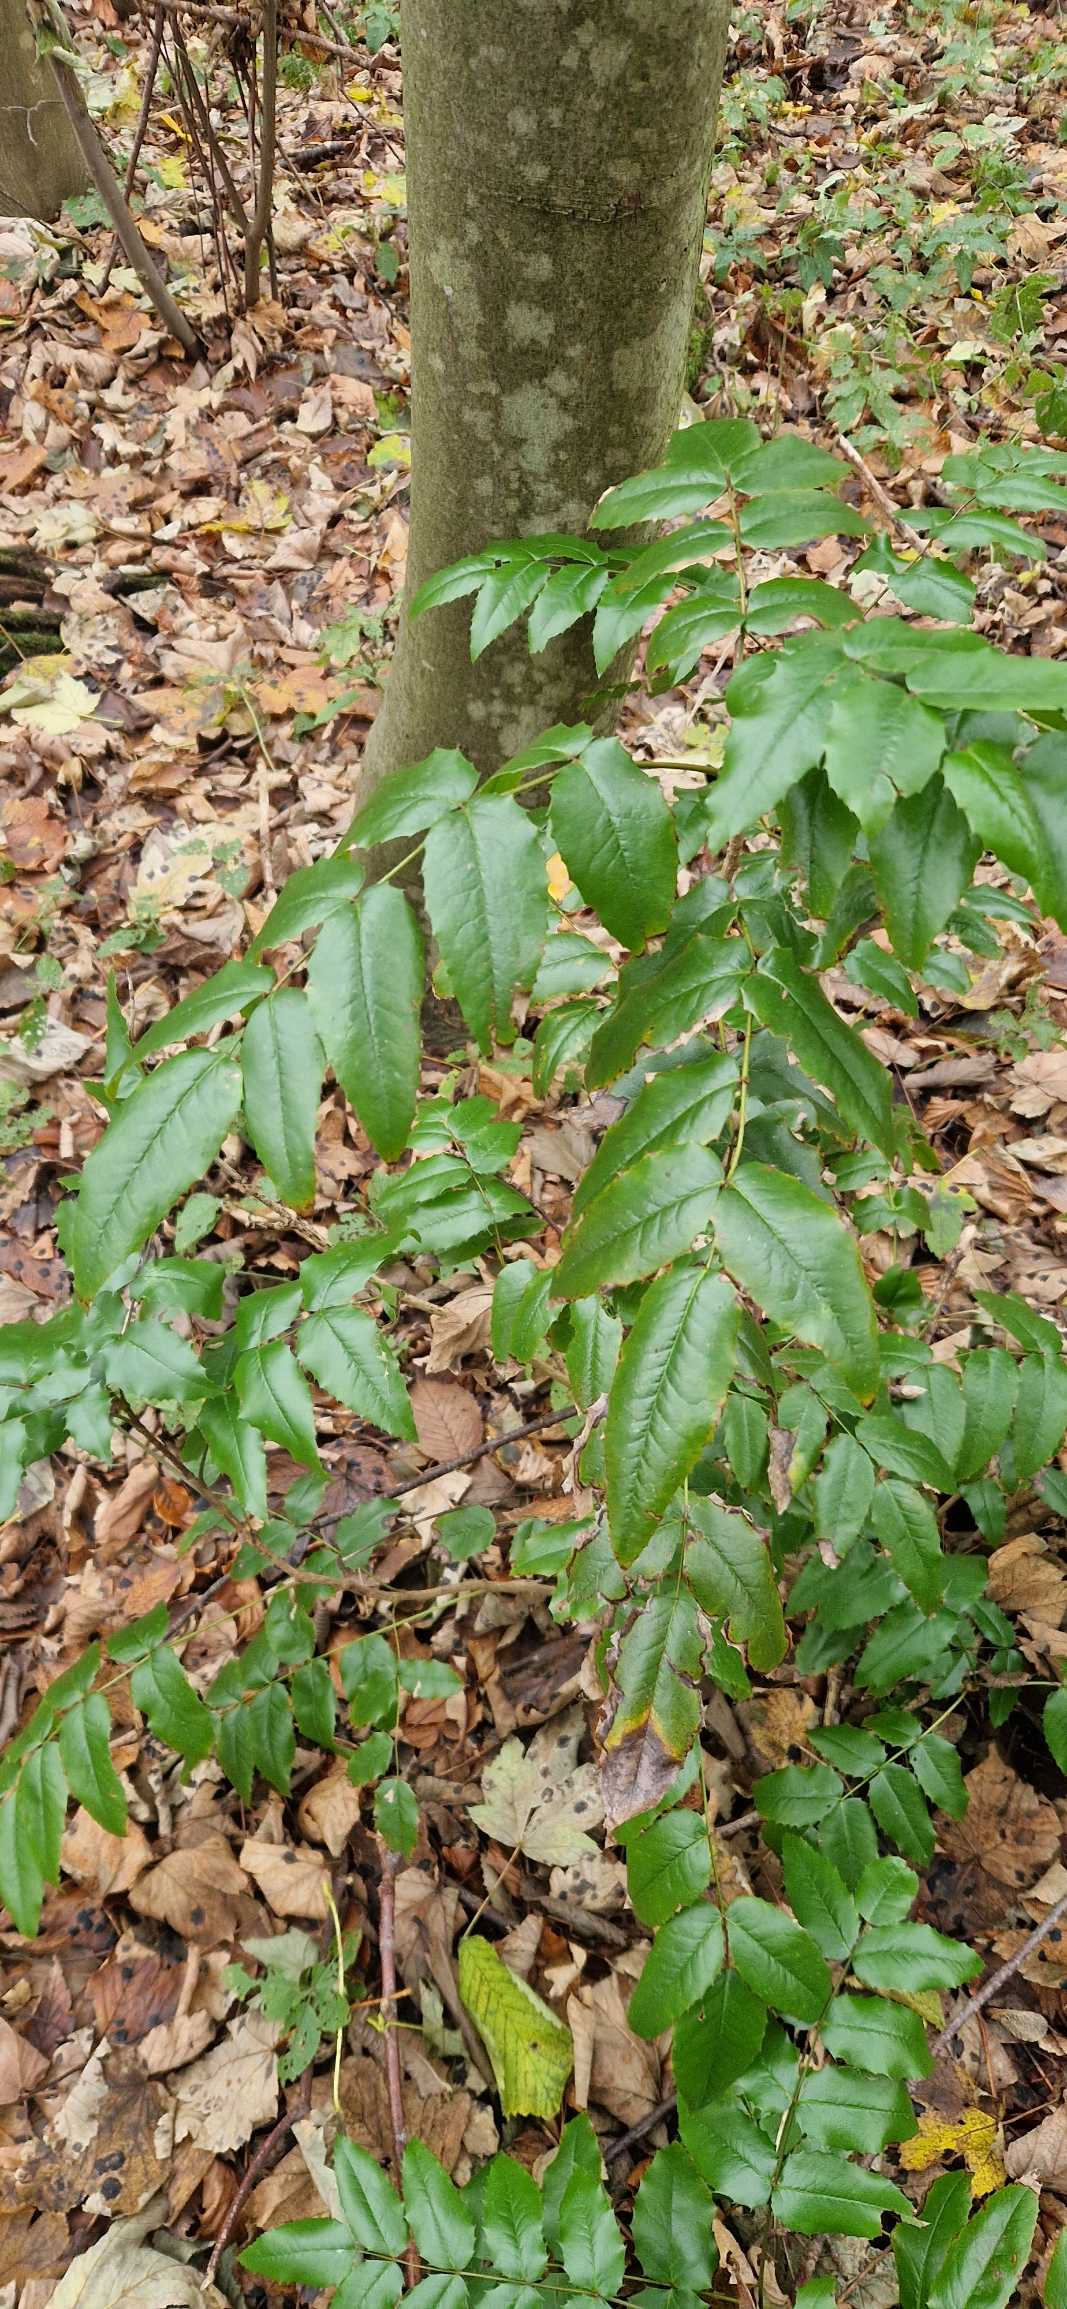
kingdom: Plantae
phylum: Tracheophyta
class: Magnoliopsida
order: Ranunculales
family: Berberidaceae
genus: Mahonia
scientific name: Mahonia aquifolium
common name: Almindelig mahonie
